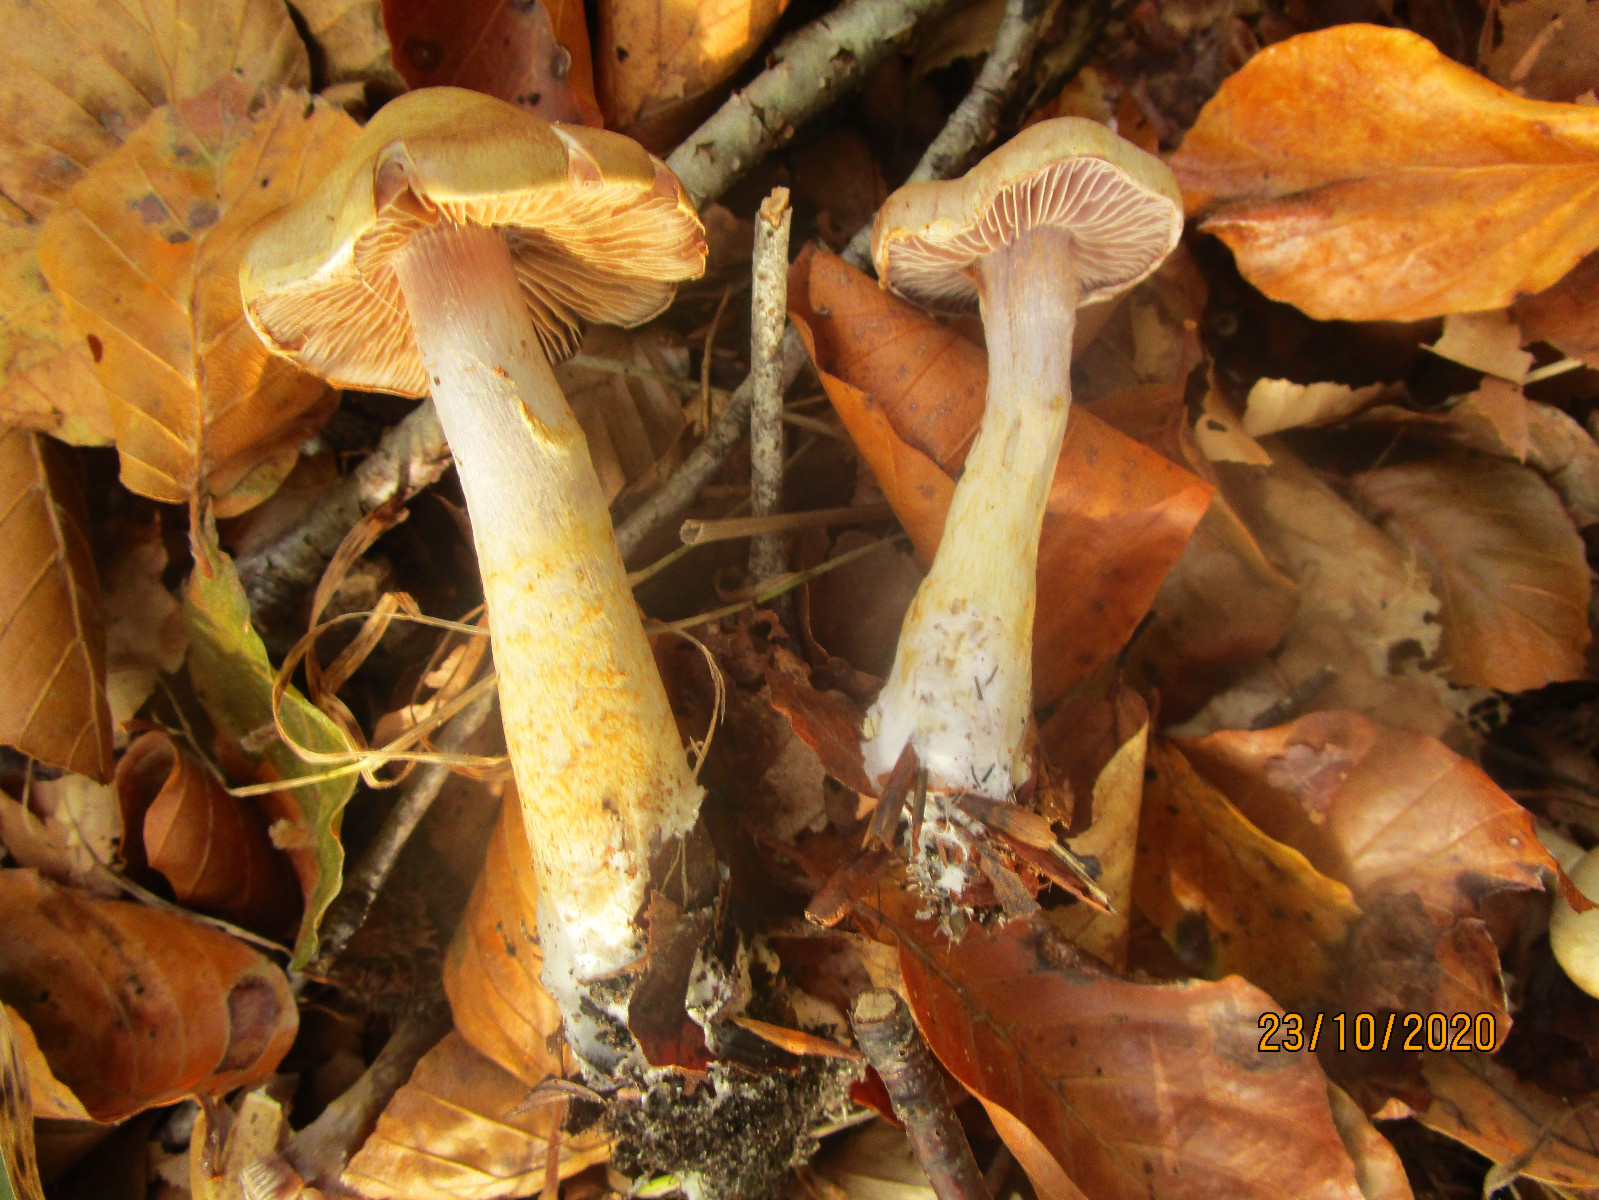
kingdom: Fungi
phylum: Basidiomycota
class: Agaricomycetes
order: Agaricales
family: Cortinariaceae
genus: Cortinarius
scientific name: Cortinarius
